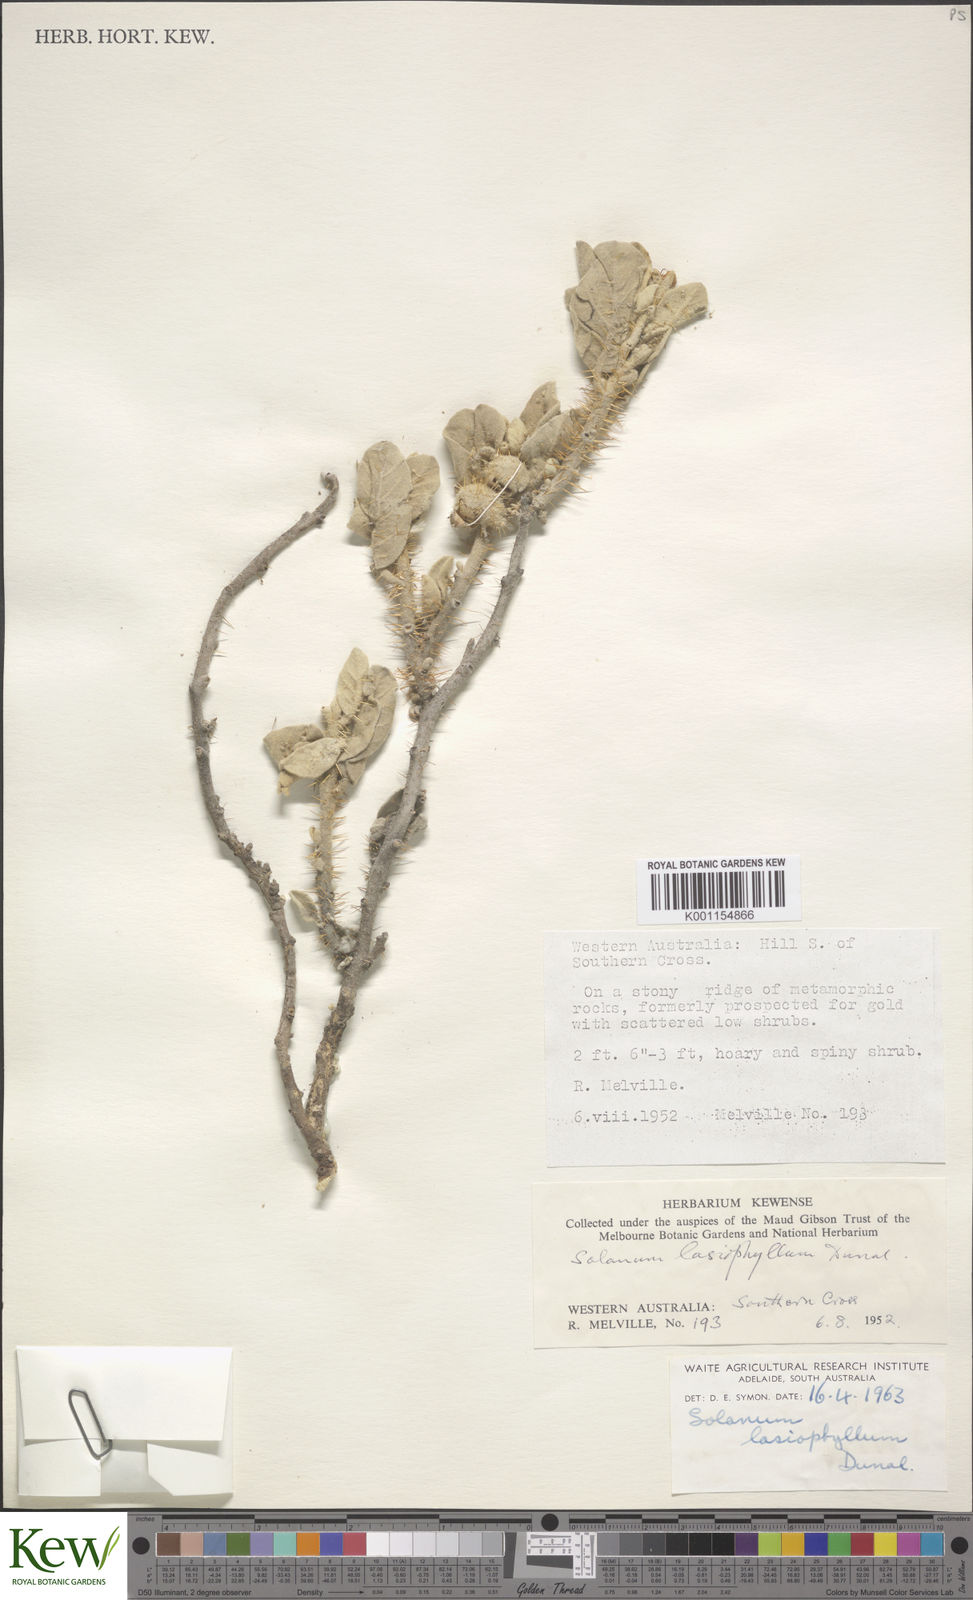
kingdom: Plantae
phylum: Tracheophyta
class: Magnoliopsida
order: Solanales
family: Solanaceae
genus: Solanum
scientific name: Solanum lasiophyllum
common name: Flannelbush
